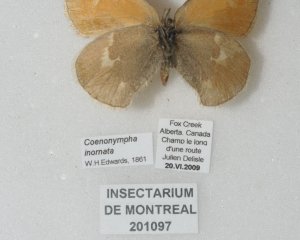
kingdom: Animalia
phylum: Arthropoda
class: Insecta
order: Lepidoptera
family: Nymphalidae
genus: Coenonympha
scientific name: Coenonympha tullia
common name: Large Heath
